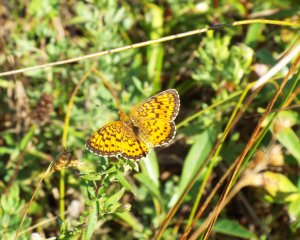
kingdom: Animalia
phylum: Arthropoda
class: Insecta
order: Lepidoptera
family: Nymphalidae
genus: Boloria
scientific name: Boloria selene
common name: Silver-bordered Fritillary
